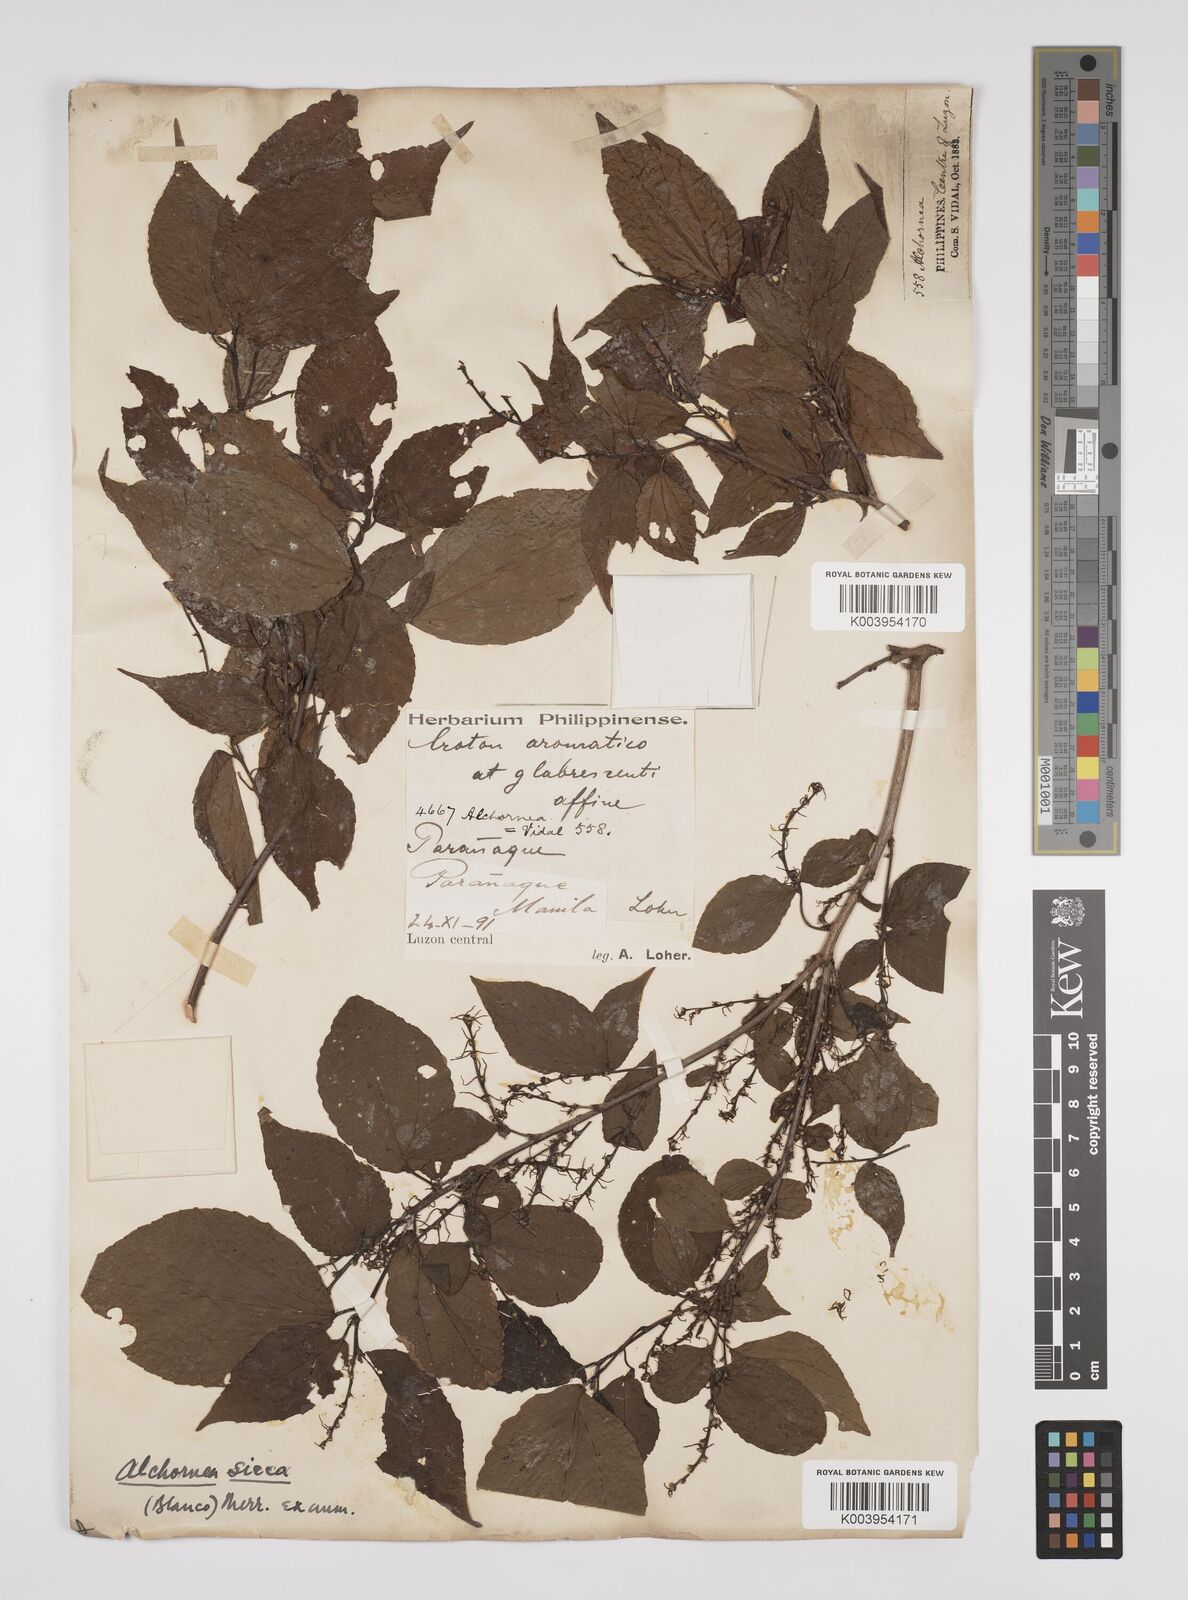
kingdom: Plantae
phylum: Tracheophyta
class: Magnoliopsida
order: Malpighiales
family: Euphorbiaceae
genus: Alchornea
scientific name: Alchornea sicca
